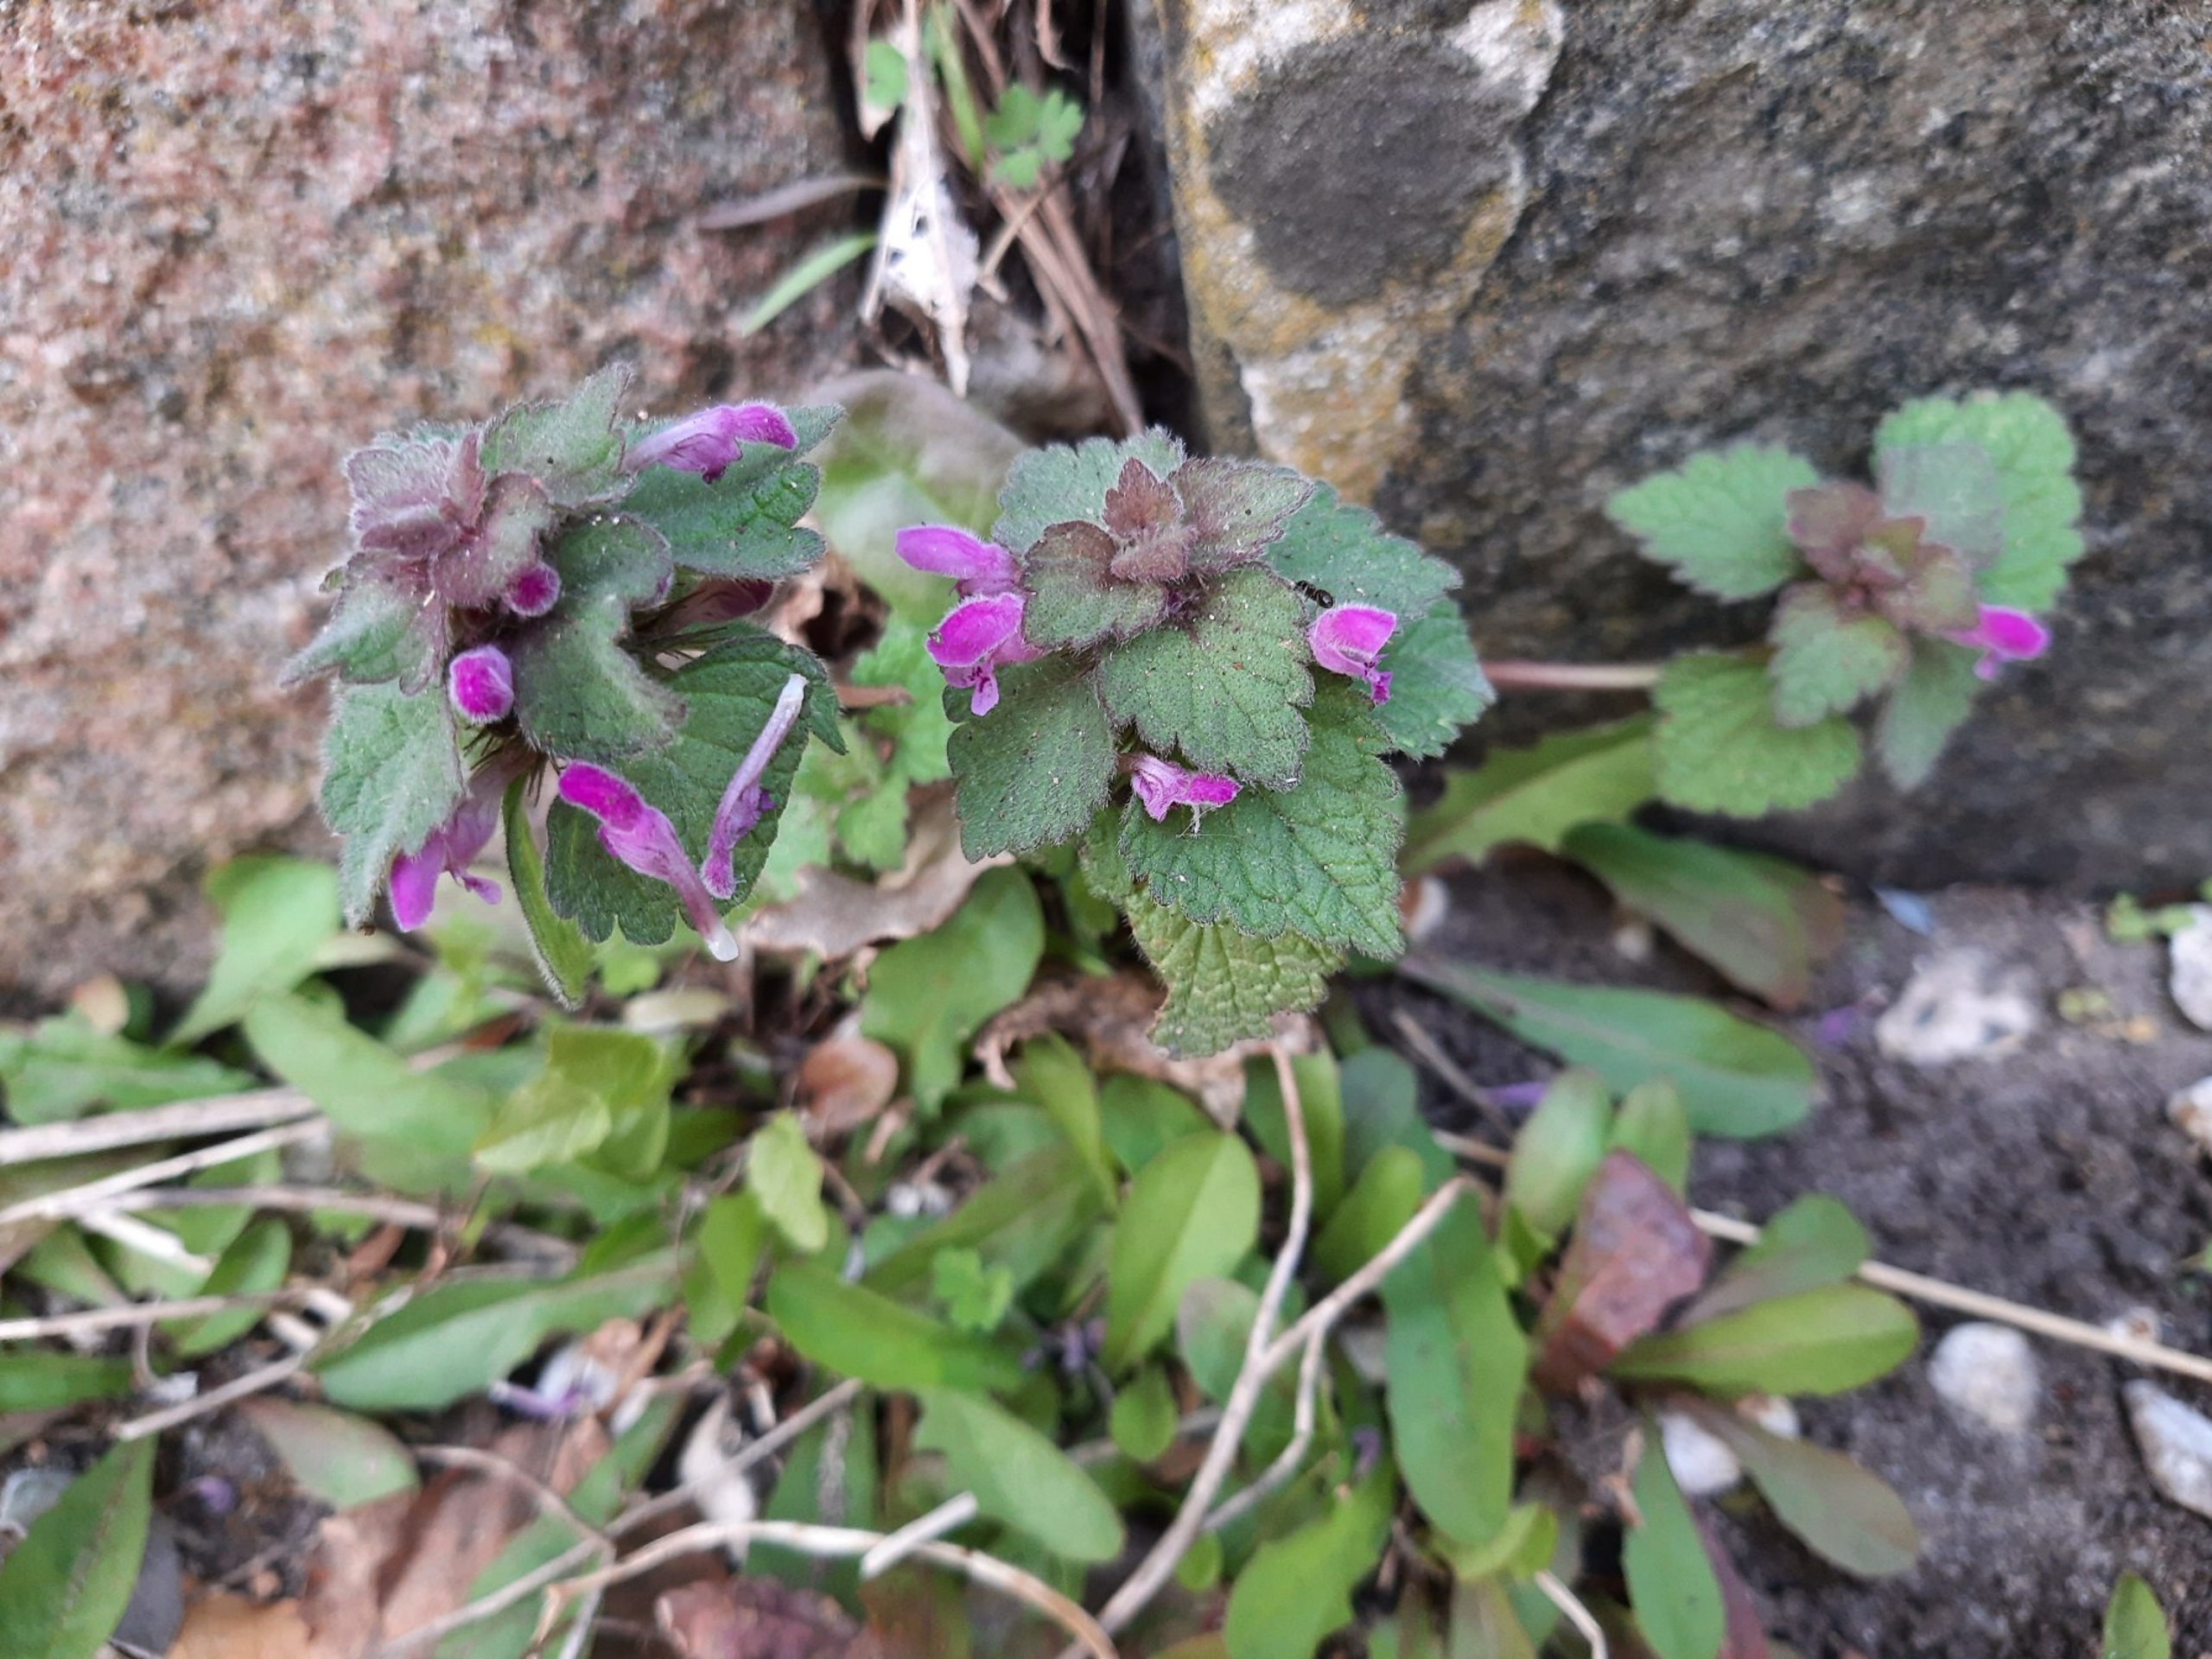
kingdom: Plantae
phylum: Tracheophyta
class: Magnoliopsida
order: Lamiales
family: Lamiaceae
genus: Lamium
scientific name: Lamium purpureum
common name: Rød tvetand
